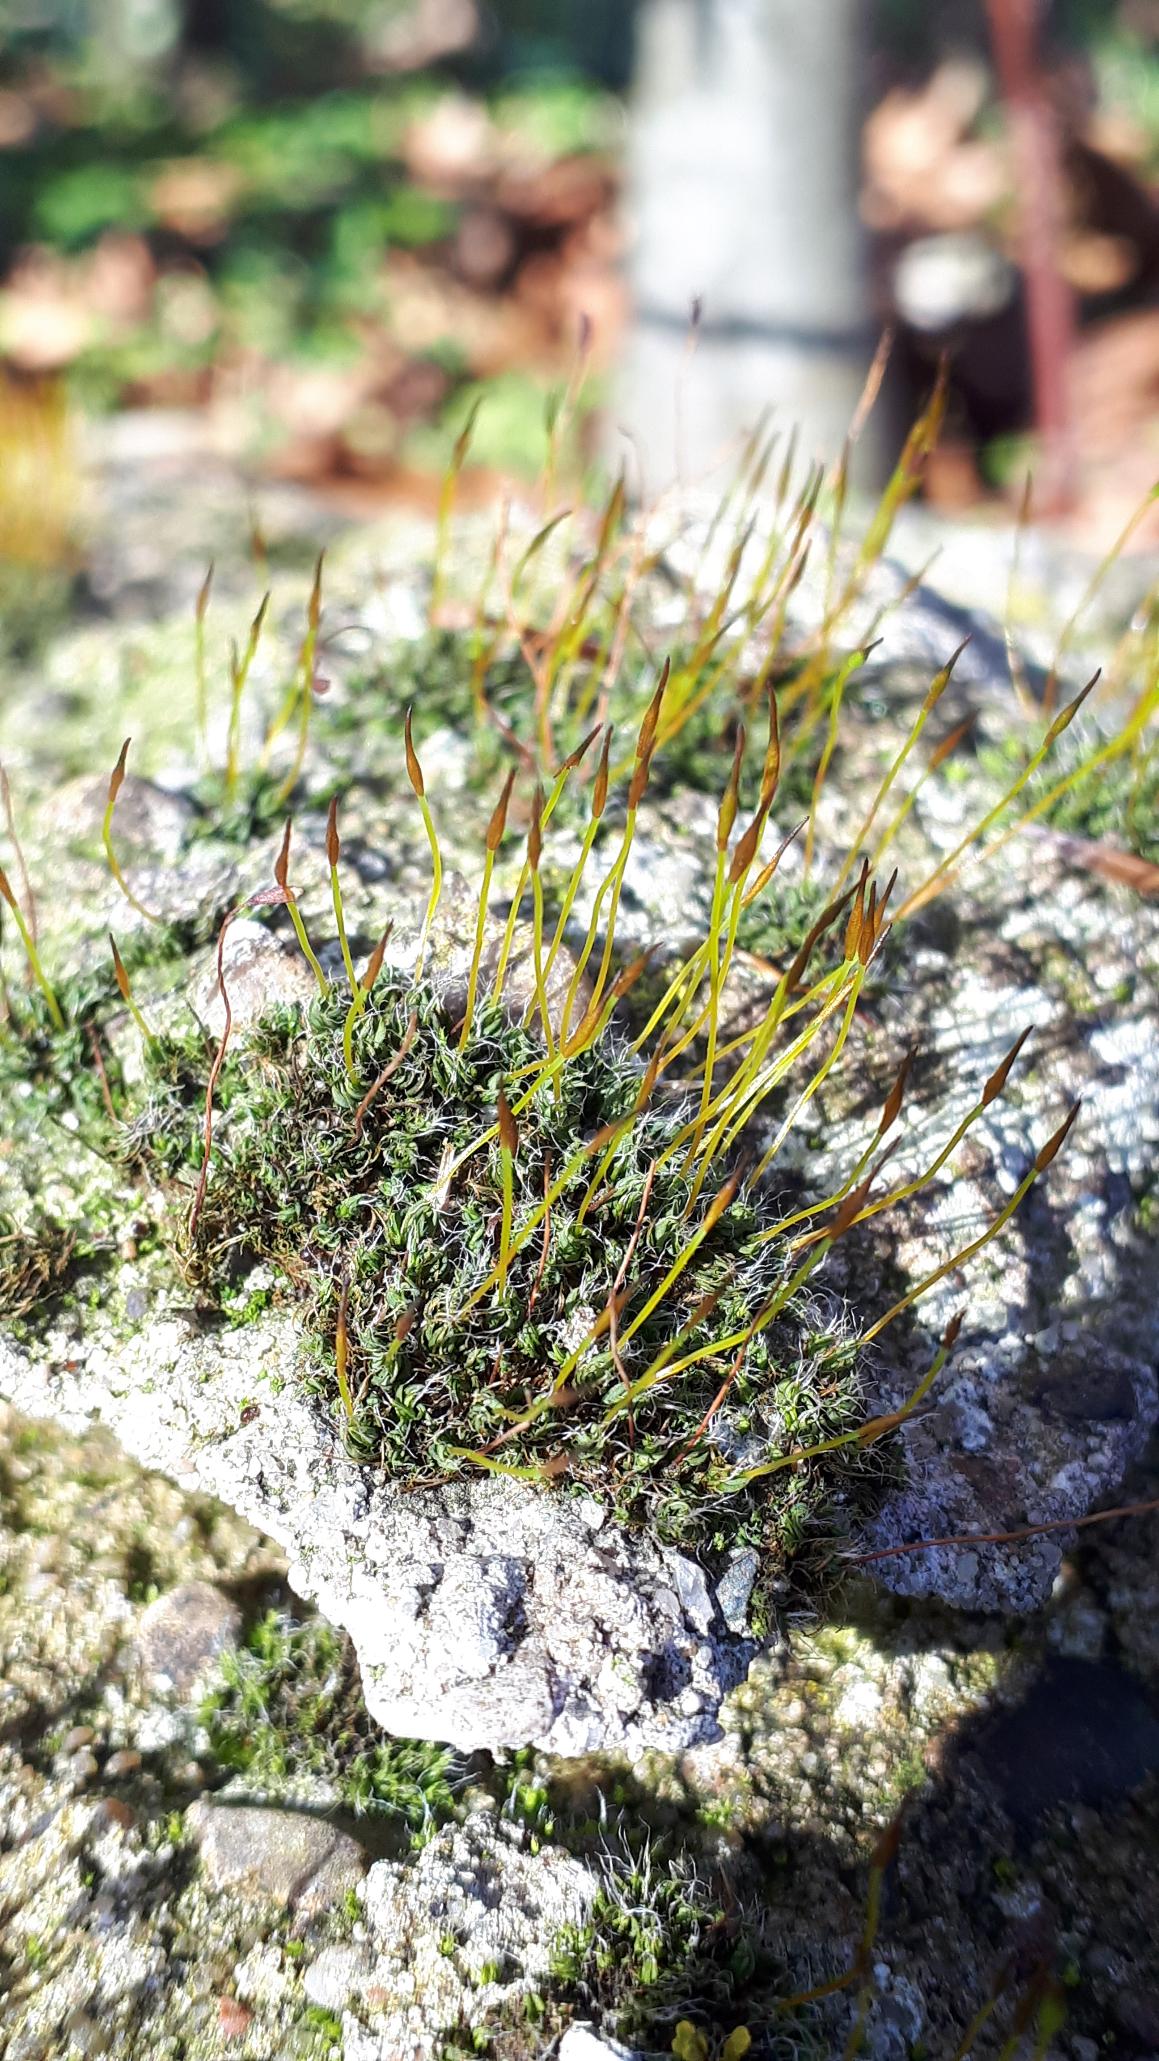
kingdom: Plantae
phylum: Bryophyta
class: Bryopsida
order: Pottiales
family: Pottiaceae
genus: Tortula
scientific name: Tortula muralis
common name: Mur-snotand
